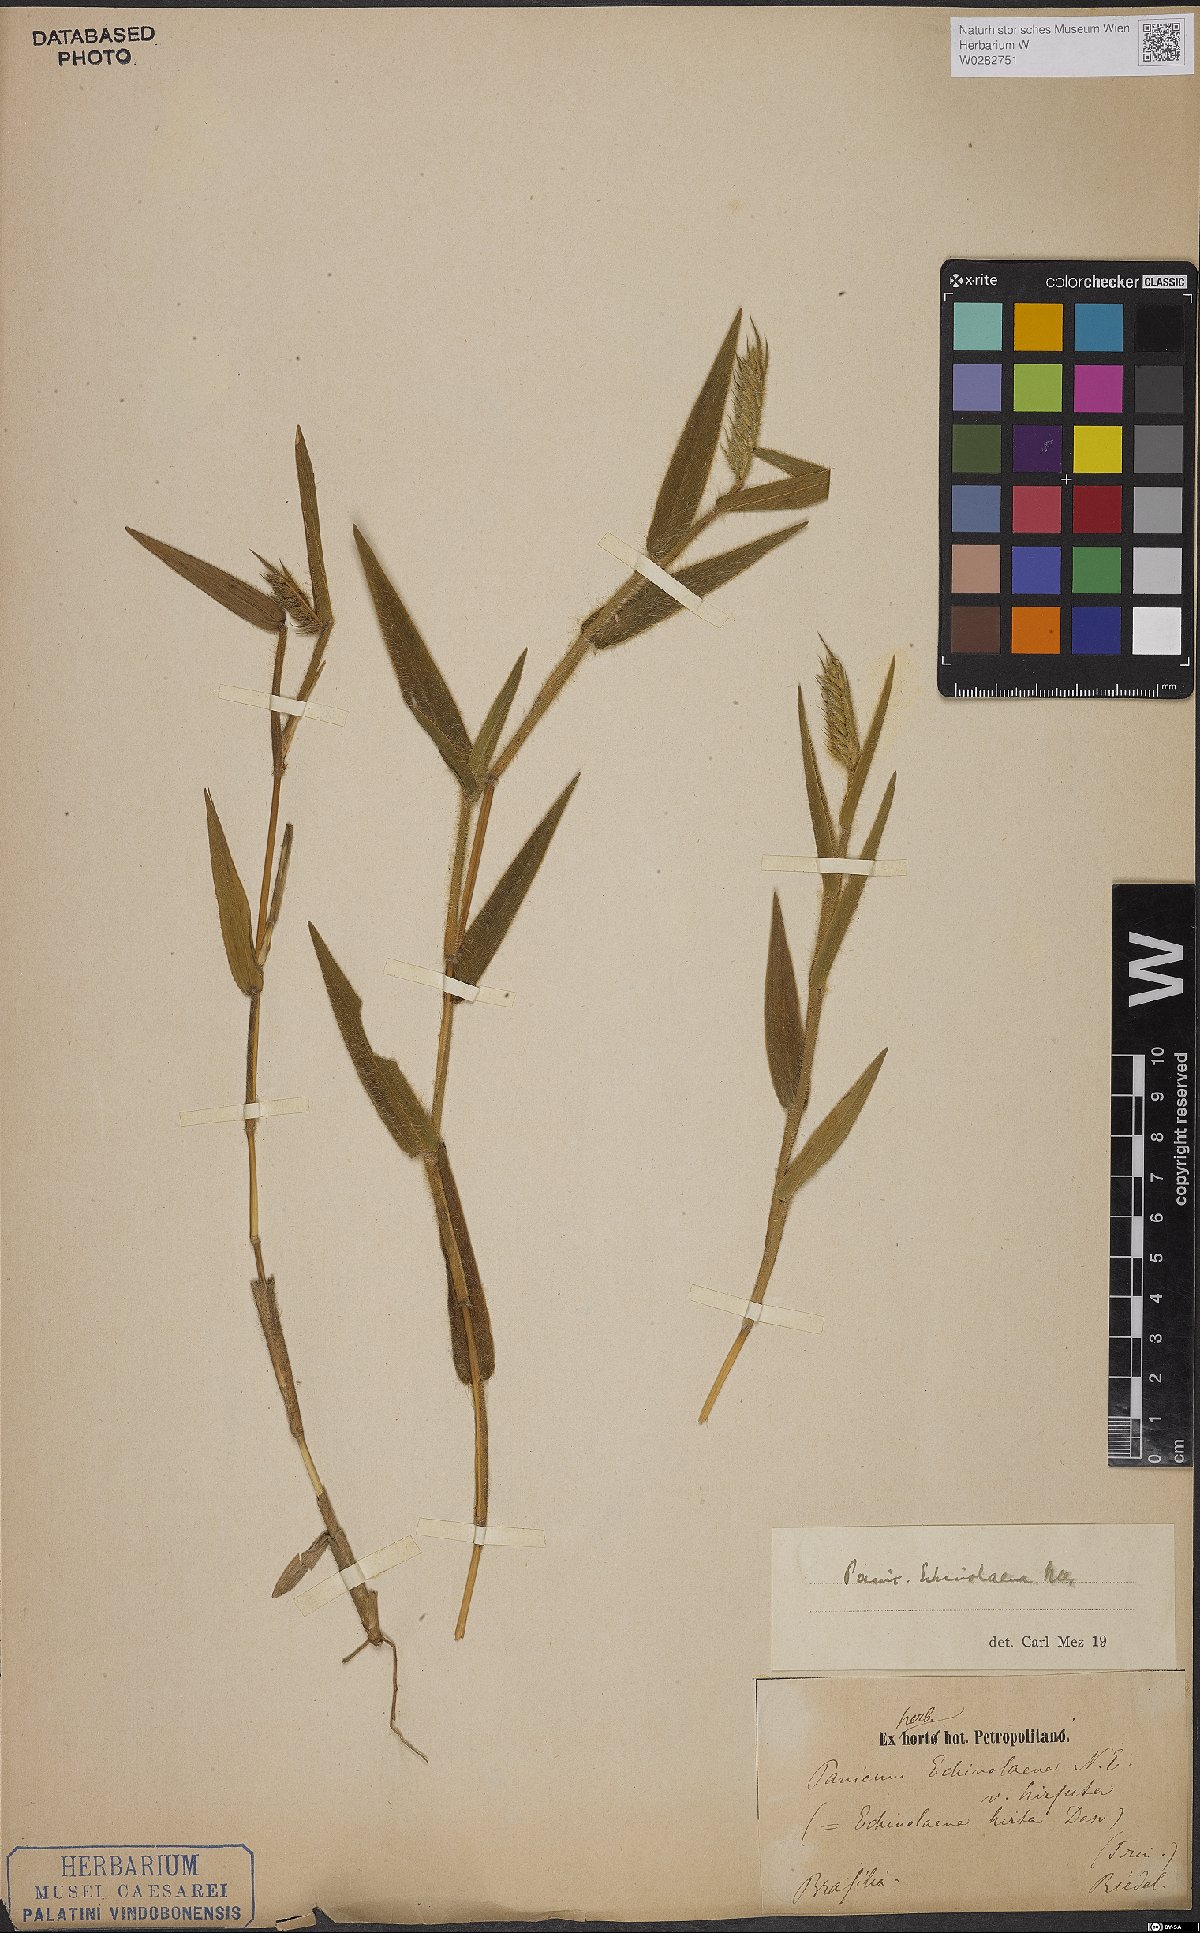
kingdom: Plantae
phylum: Tracheophyta
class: Liliopsida
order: Poales
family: Poaceae
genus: Echinolaena
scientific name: Echinolaena inflexa
